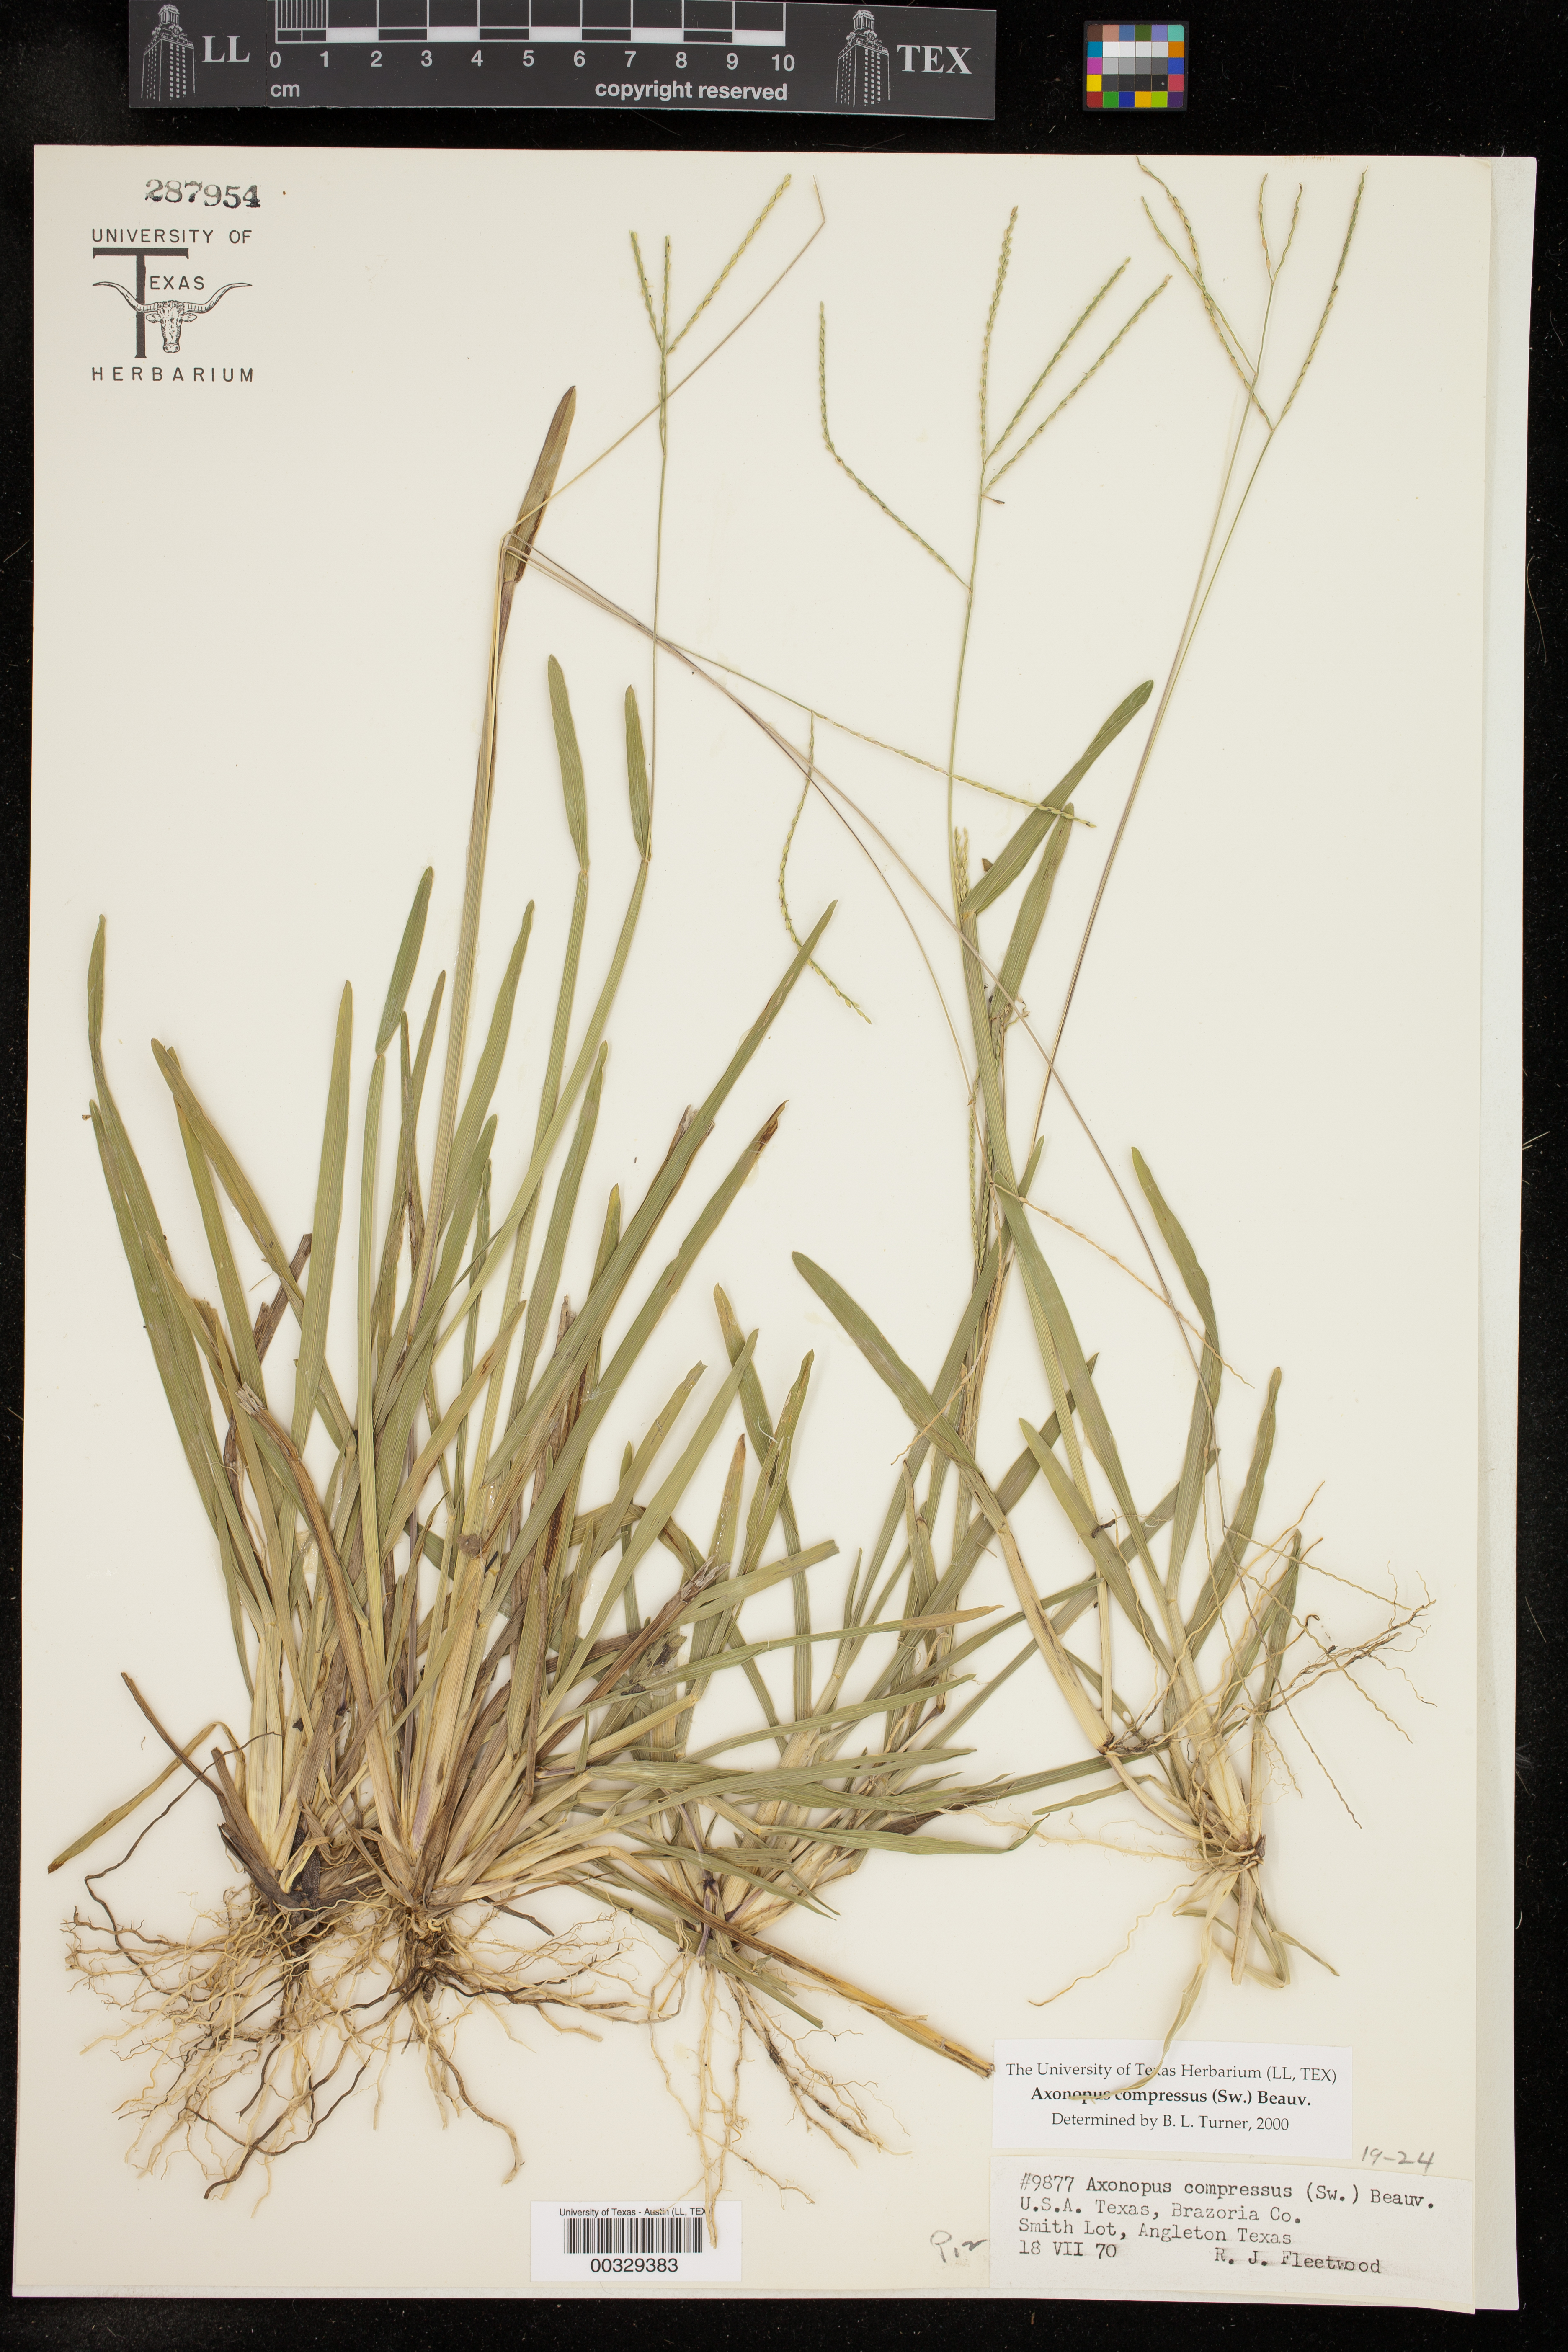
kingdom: Plantae
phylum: Tracheophyta
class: Liliopsida
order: Poales
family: Poaceae
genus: Axonopus
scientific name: Axonopus compressus
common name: American carpet grass
